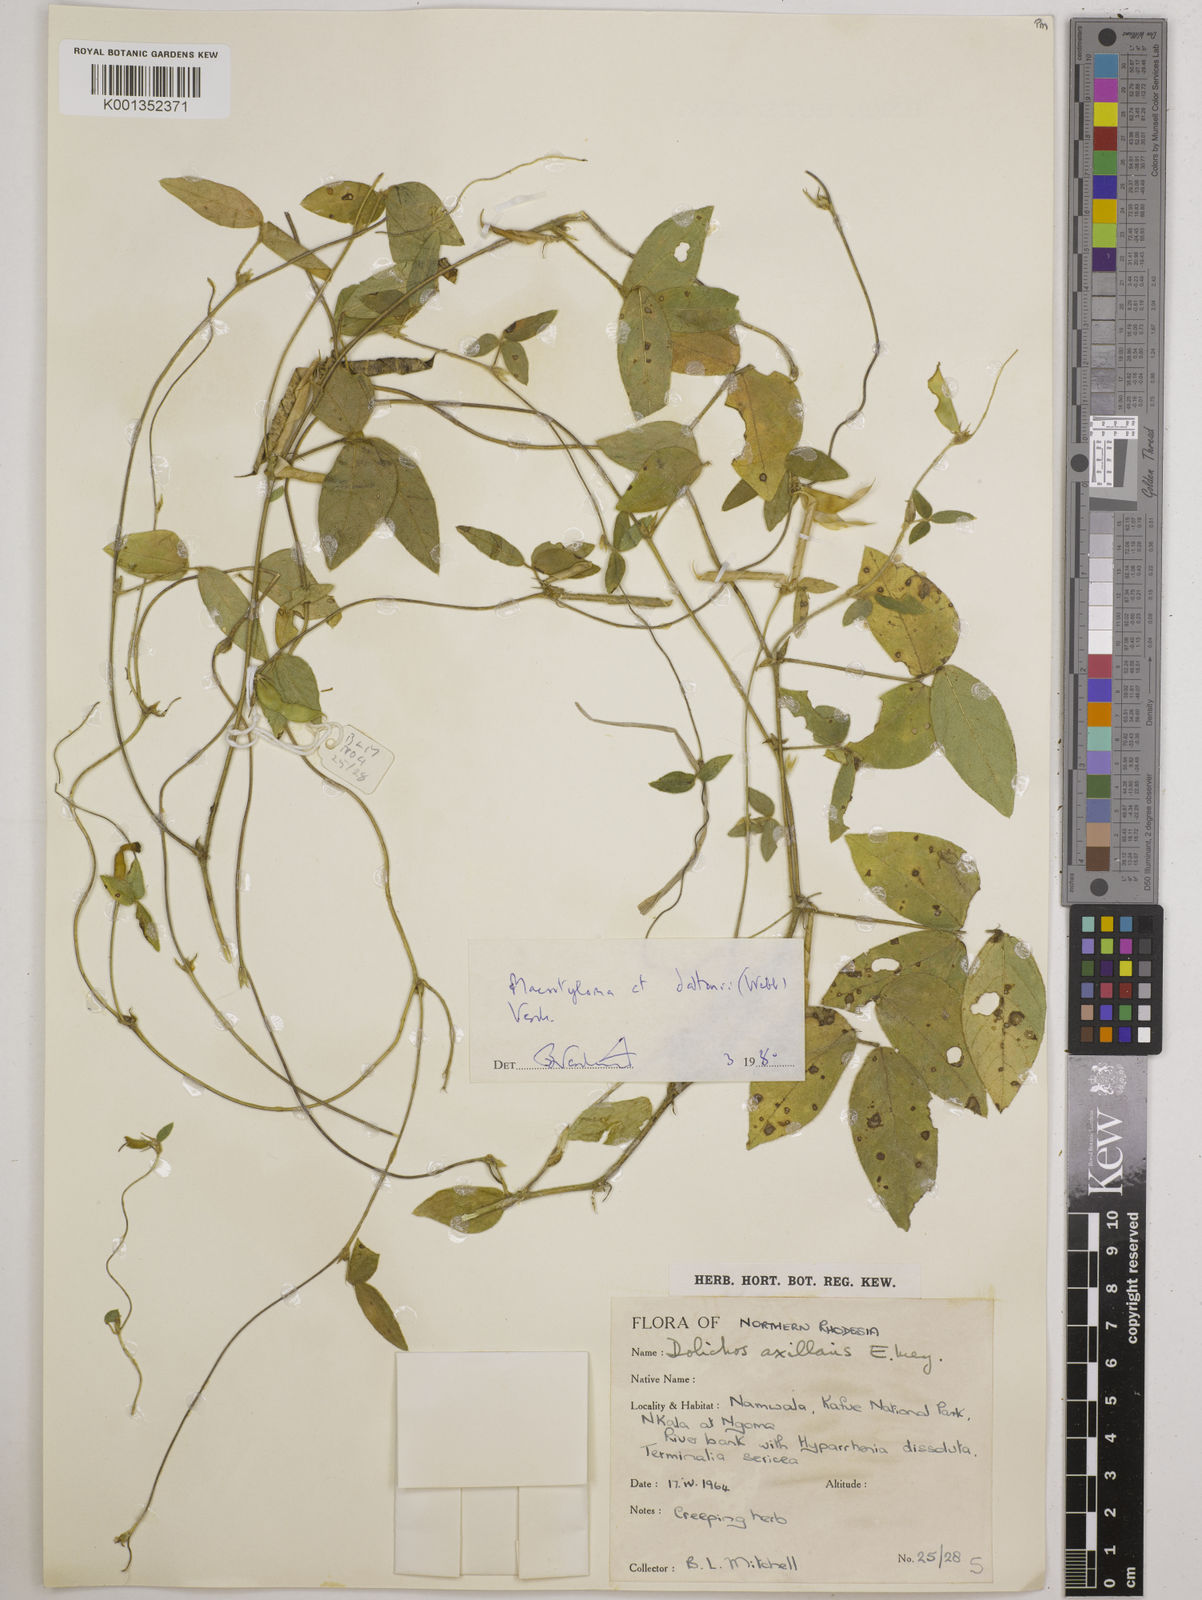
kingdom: Plantae
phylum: Tracheophyta
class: Magnoliopsida
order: Fabales
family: Fabaceae
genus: Macrotyloma
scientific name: Macrotyloma daltonii
